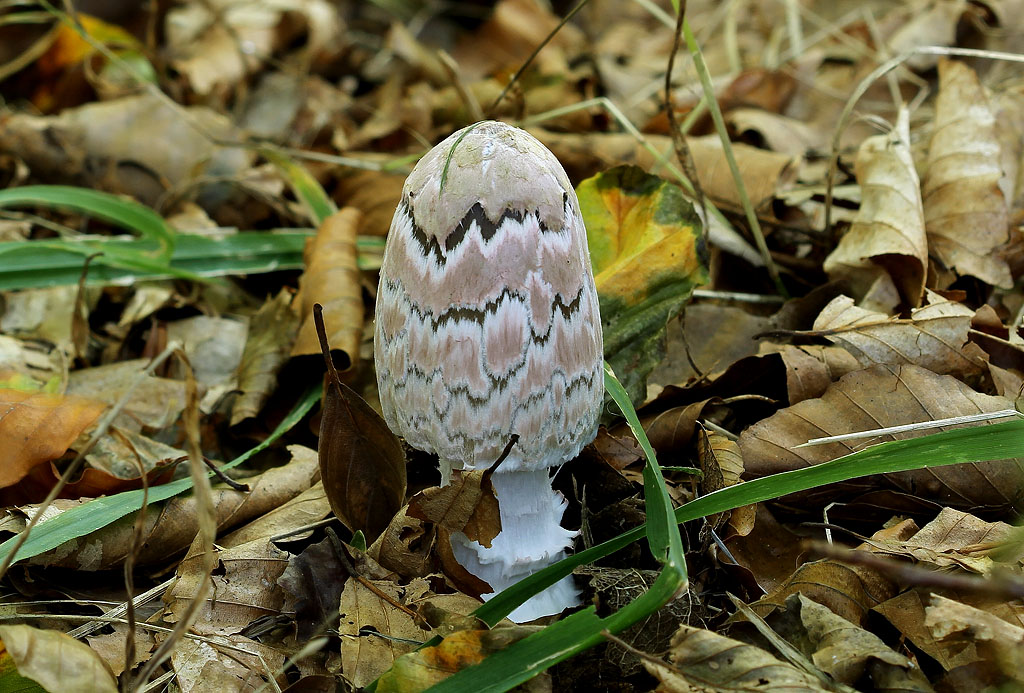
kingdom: Fungi
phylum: Basidiomycota
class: Agaricomycetes
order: Agaricales
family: Psathyrellaceae
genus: Coprinopsis
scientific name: Coprinopsis picacea
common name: skade-blækhat
